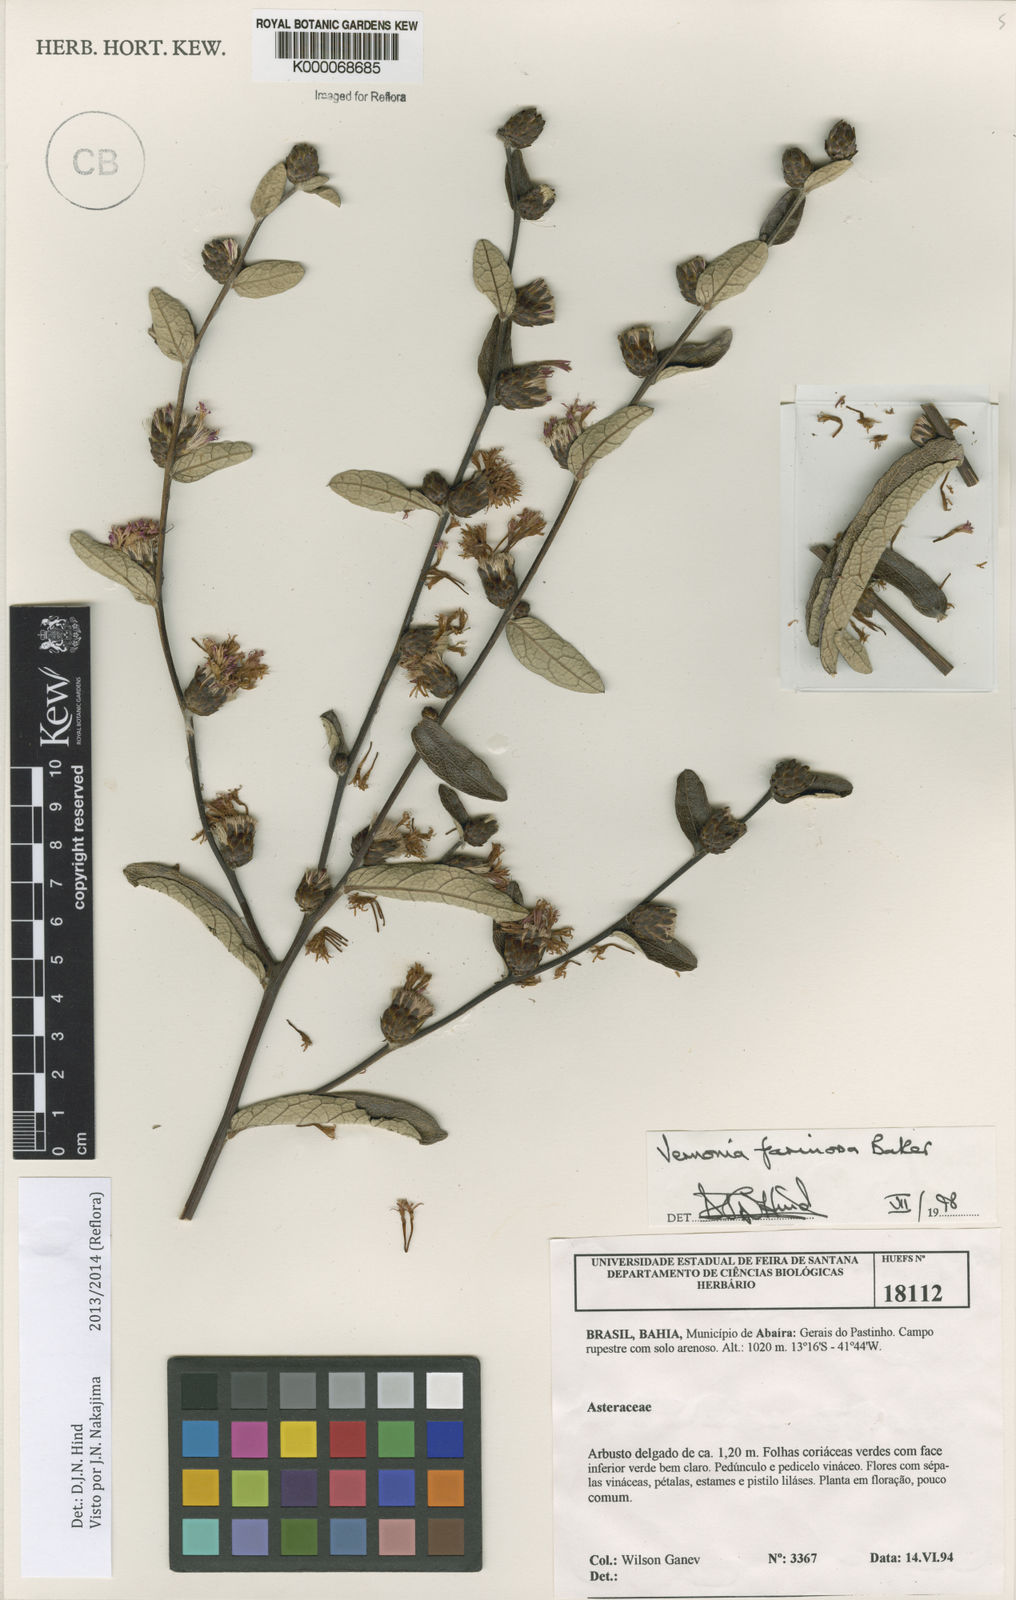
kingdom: Plantae
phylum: Tracheophyta
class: Magnoliopsida
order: Asterales
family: Asteraceae
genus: Lessingianthus
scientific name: Lessingianthus farinosus
